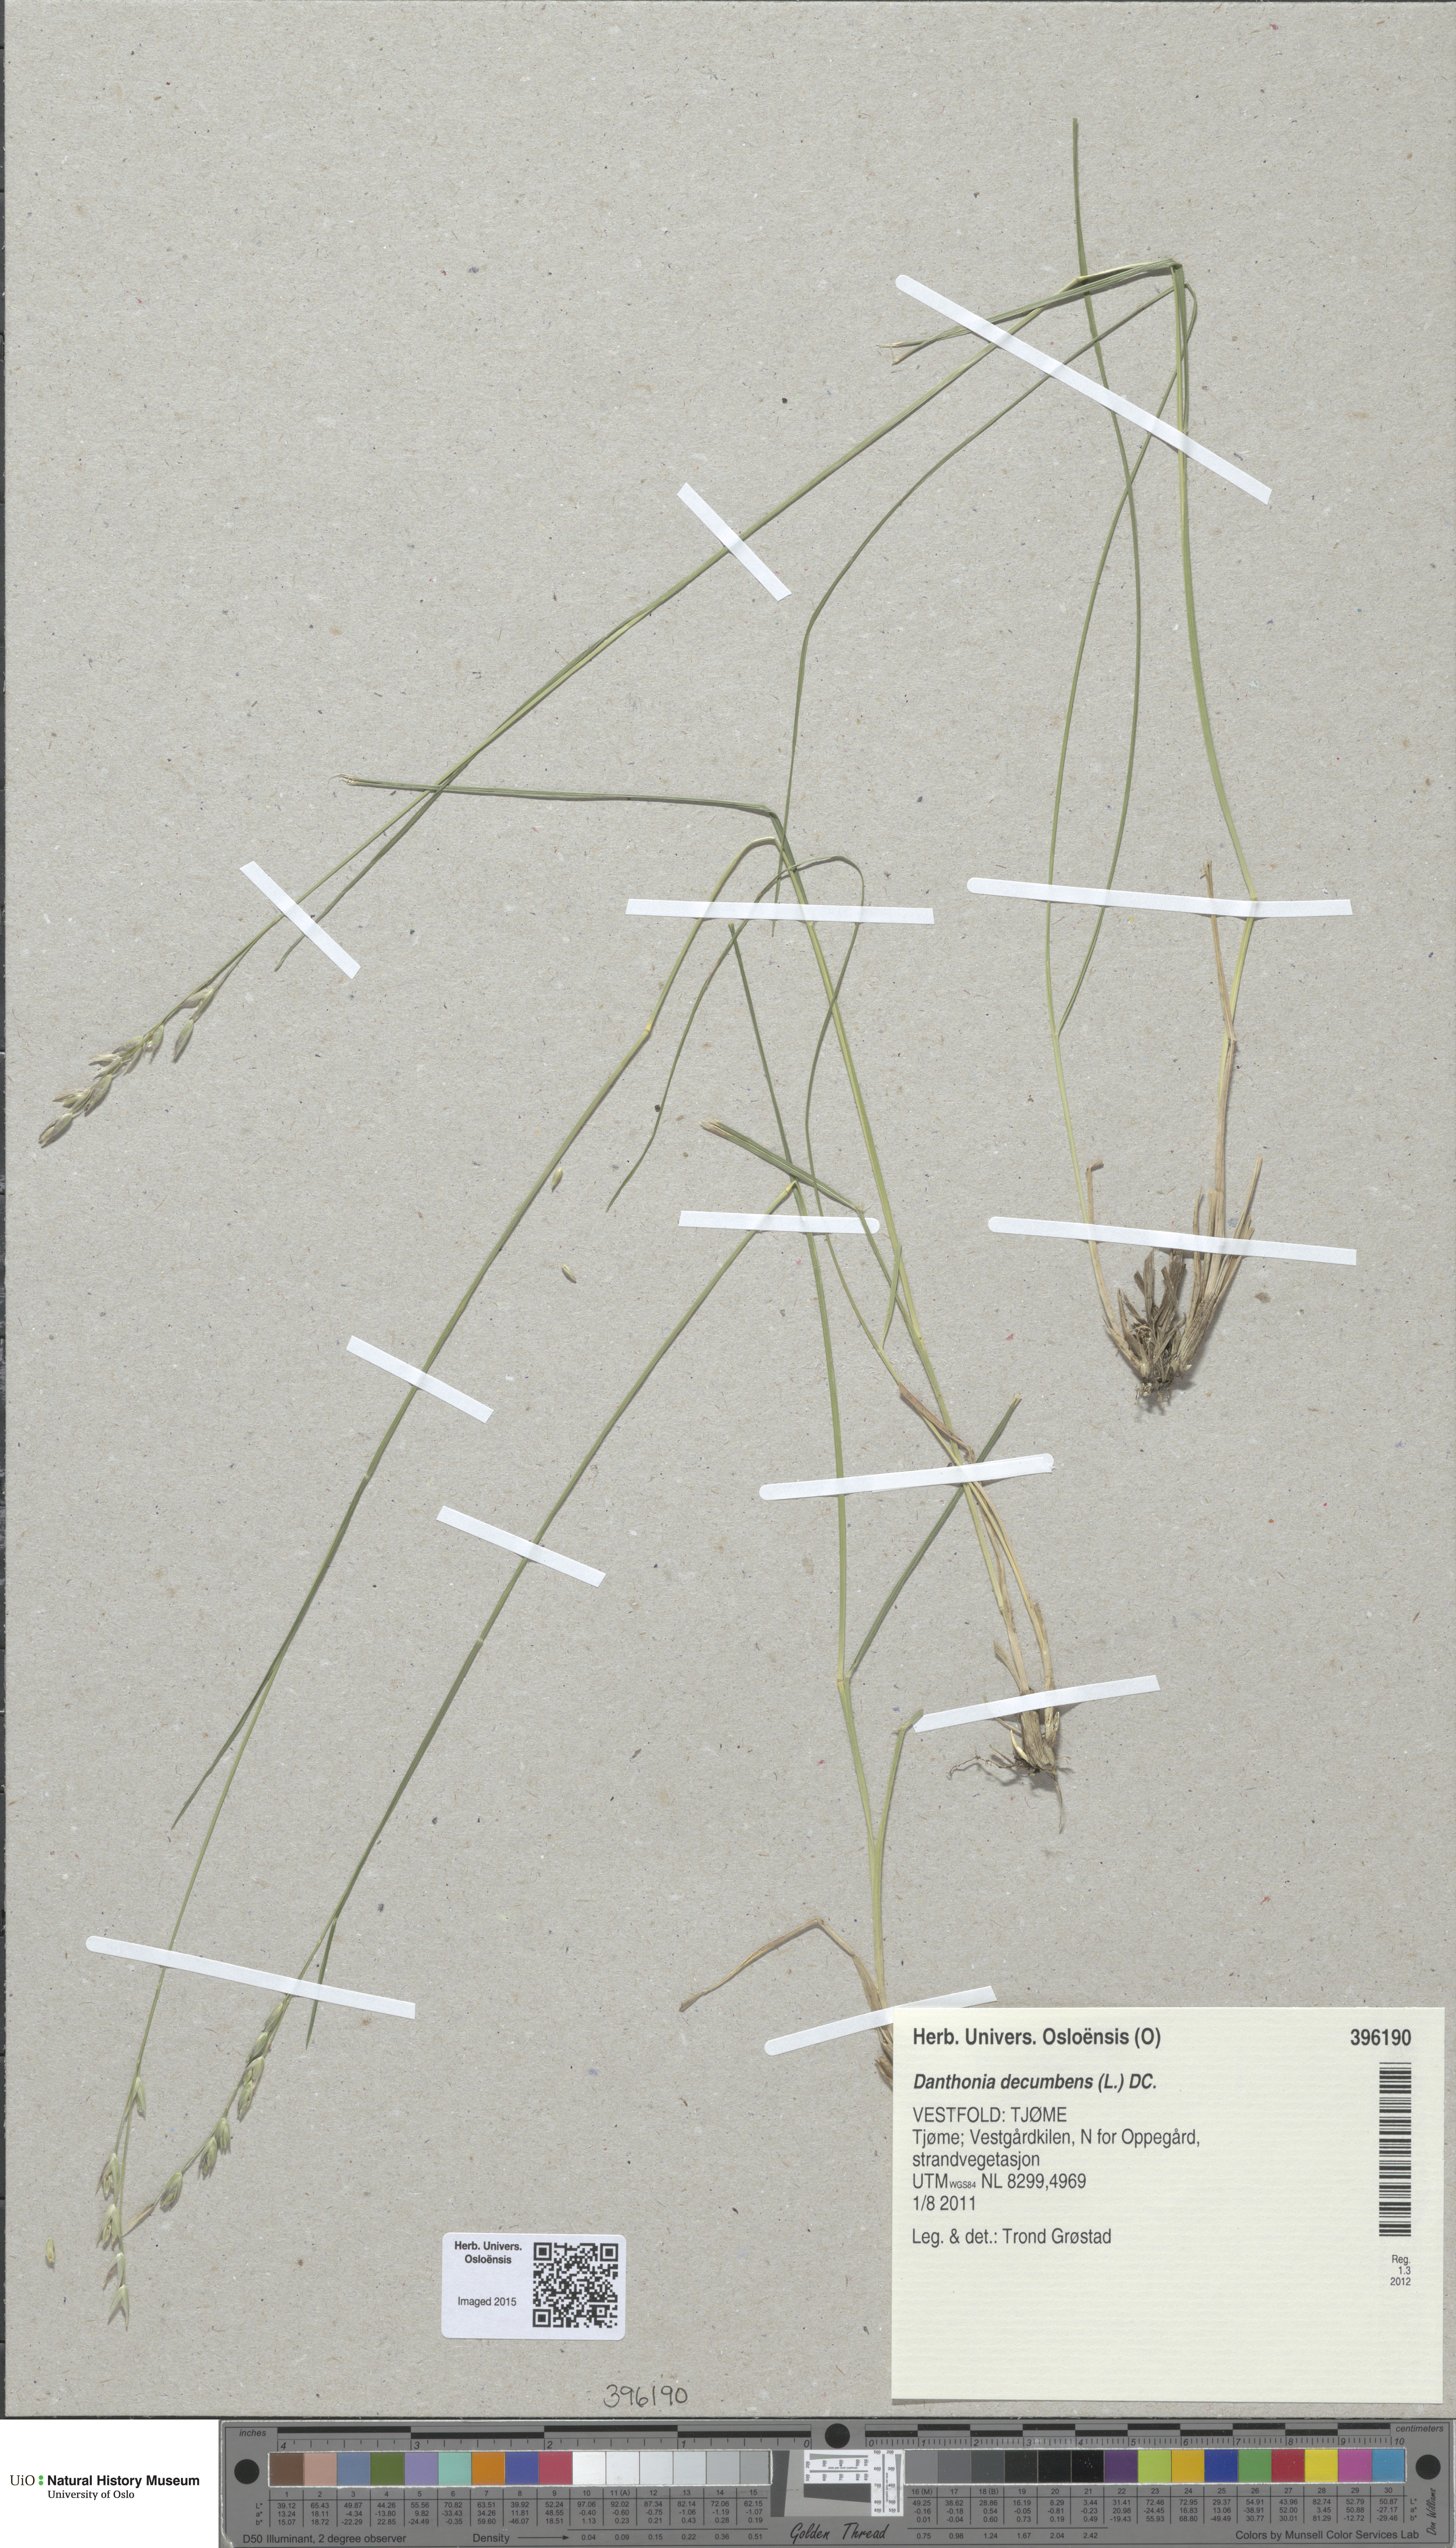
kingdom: Plantae
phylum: Tracheophyta
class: Liliopsida
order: Poales
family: Poaceae
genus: Danthonia
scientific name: Danthonia decumbens
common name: Common heathgrass
